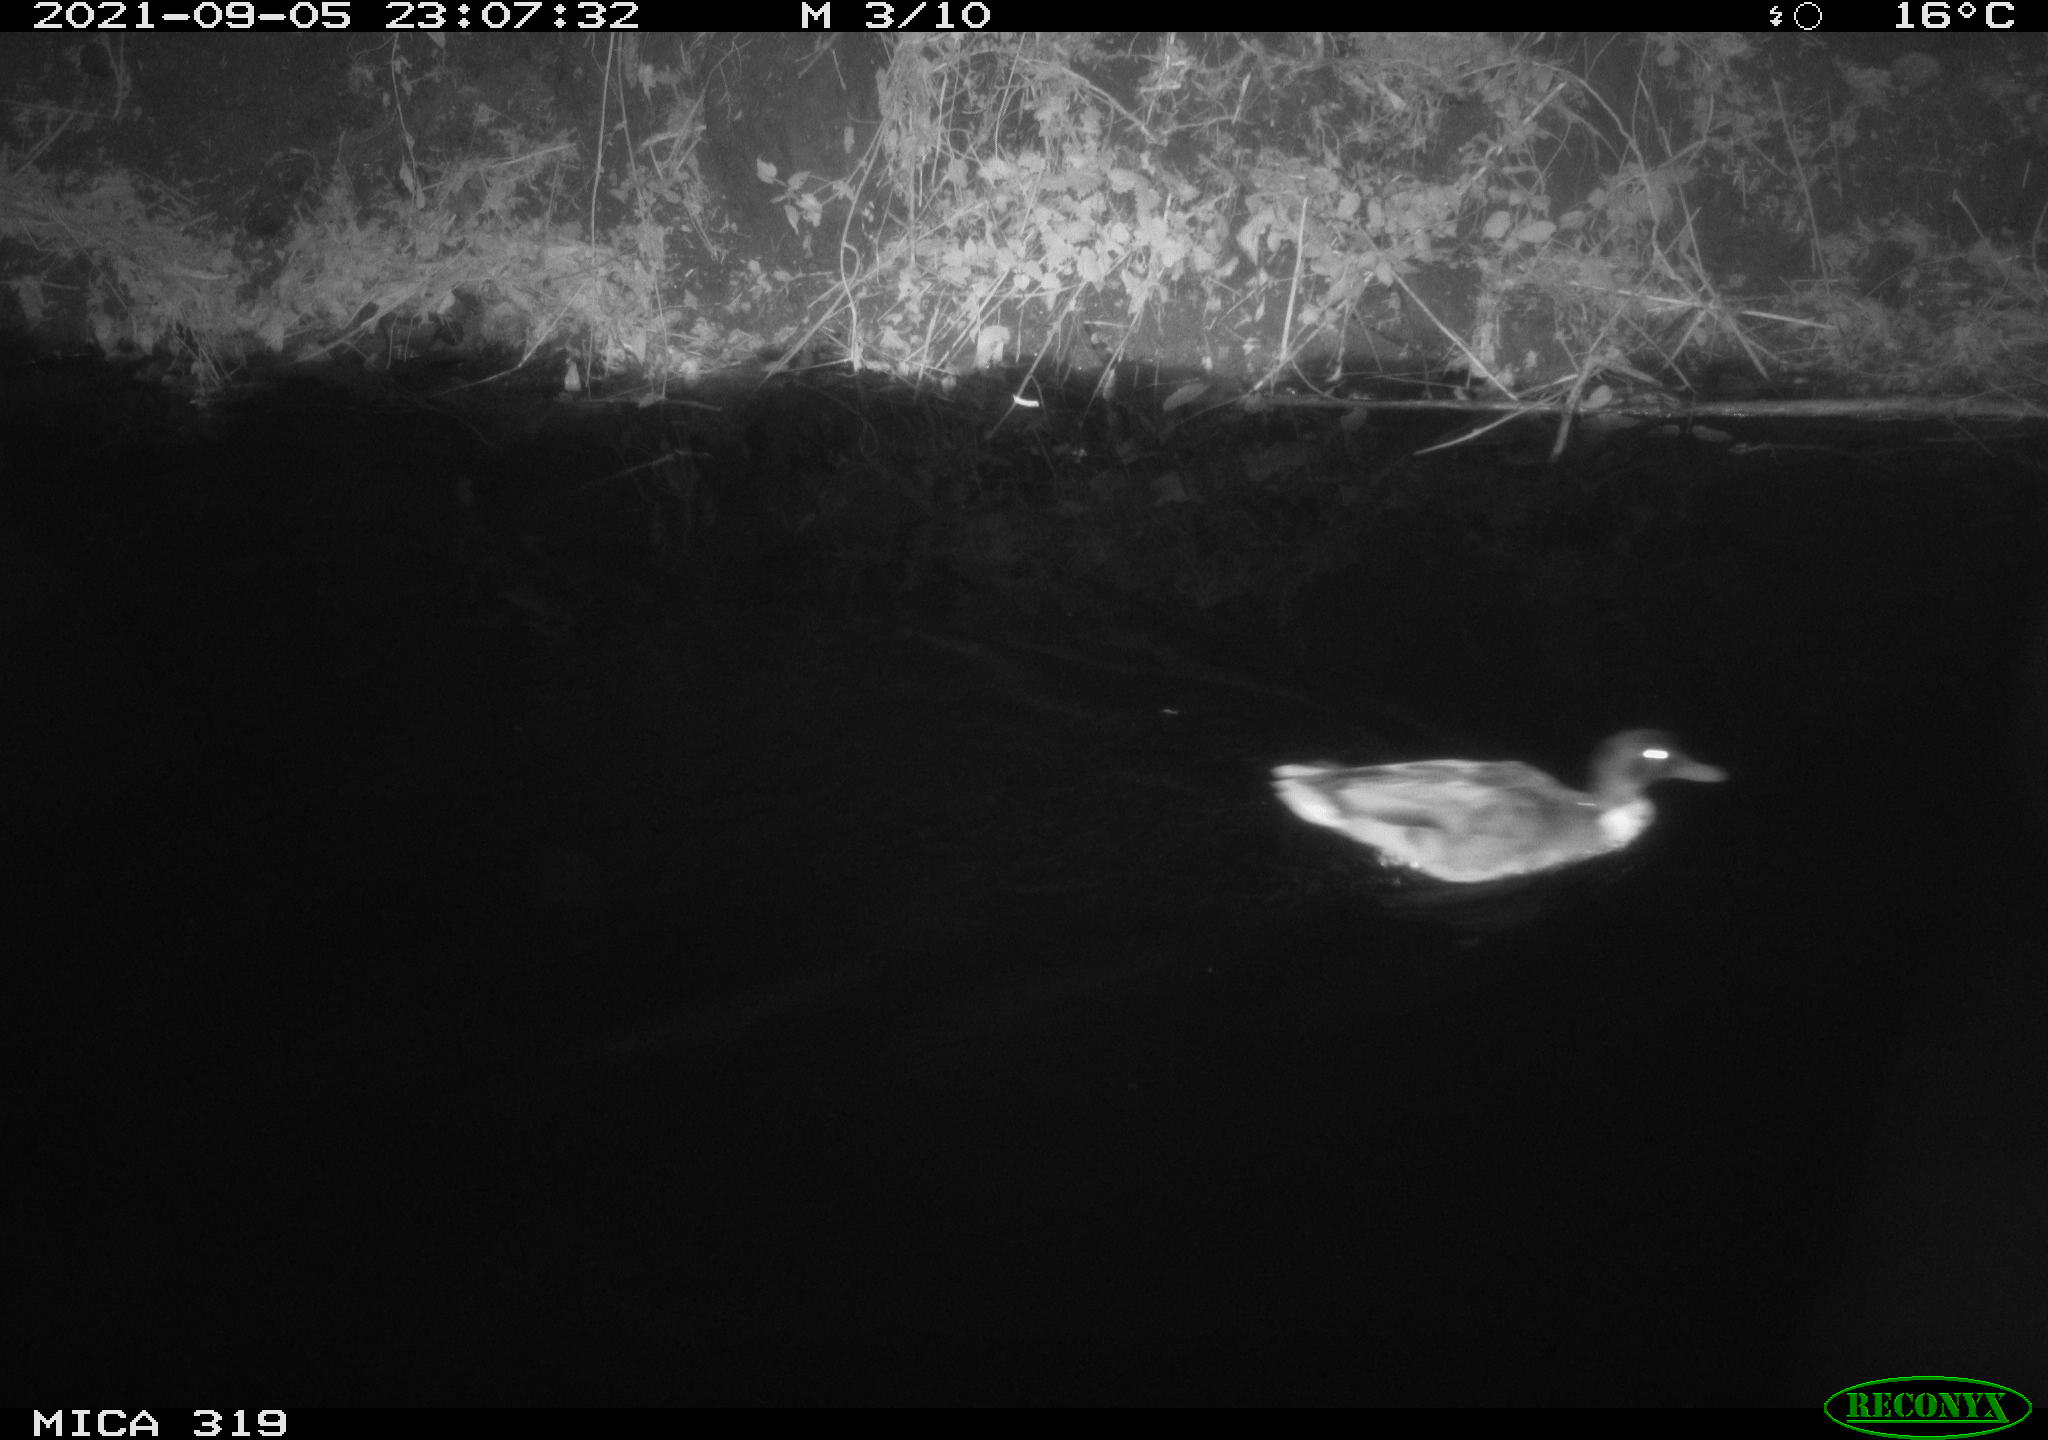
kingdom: Animalia
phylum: Chordata
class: Aves
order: Anseriformes
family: Anatidae
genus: Anas
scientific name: Anas platyrhynchos
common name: Mallard
